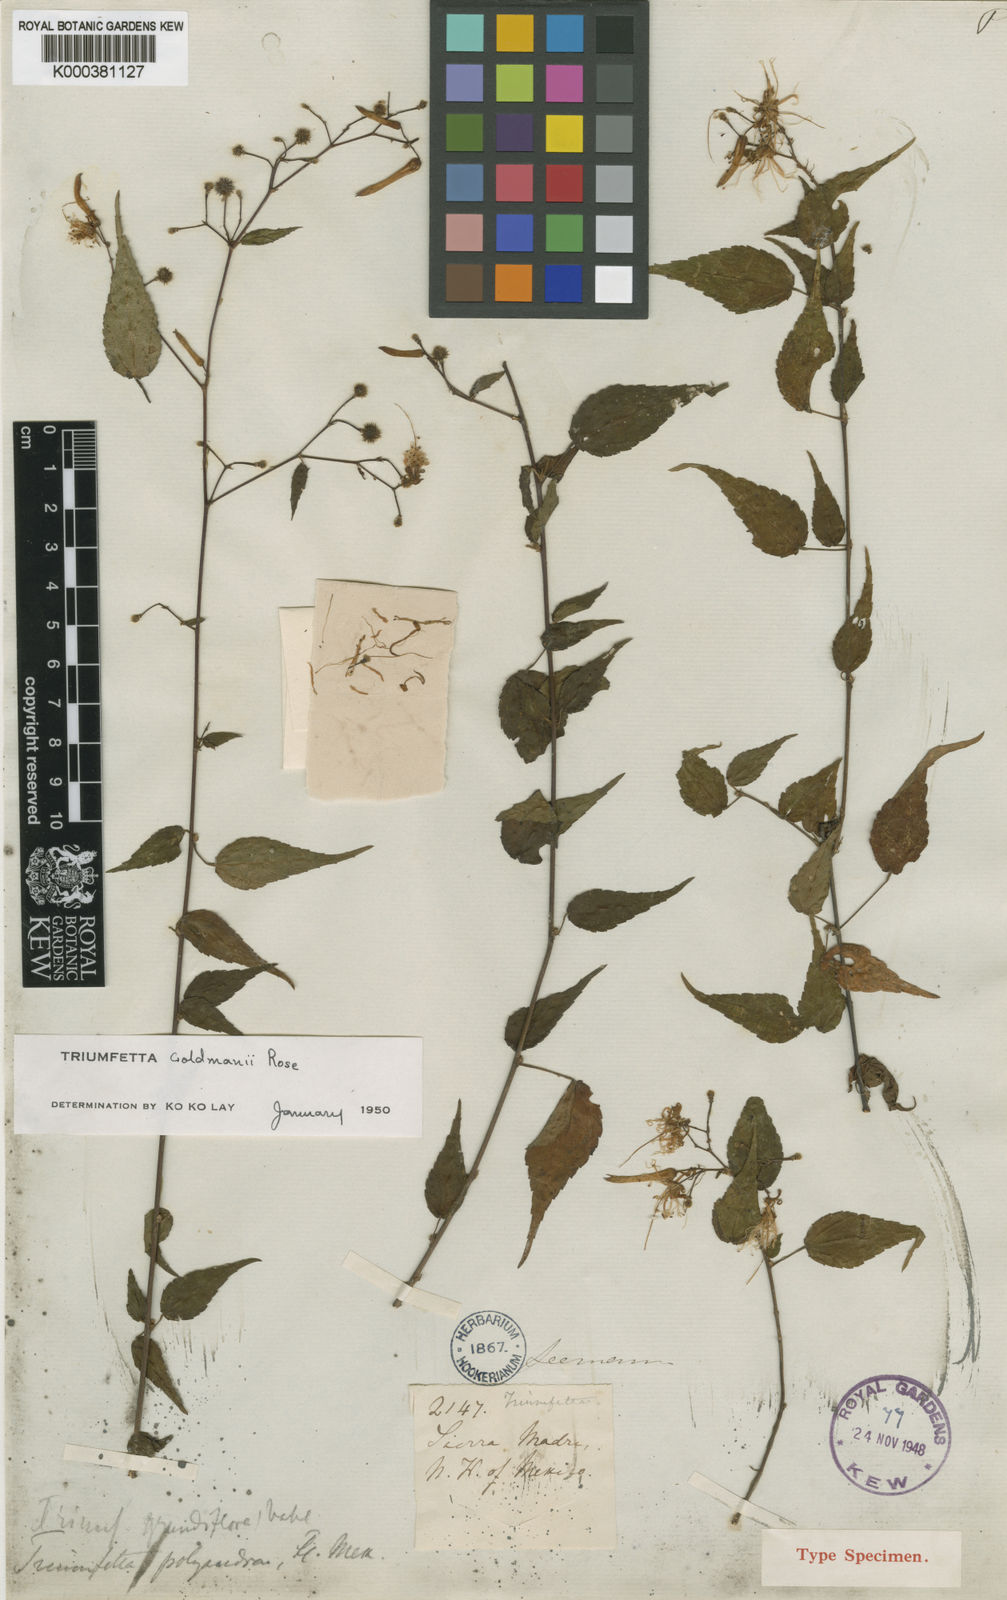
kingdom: Plantae
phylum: Tracheophyta
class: Magnoliopsida
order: Malvales
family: Malvaceae
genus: Triumfetta
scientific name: Triumfetta goldmanii
